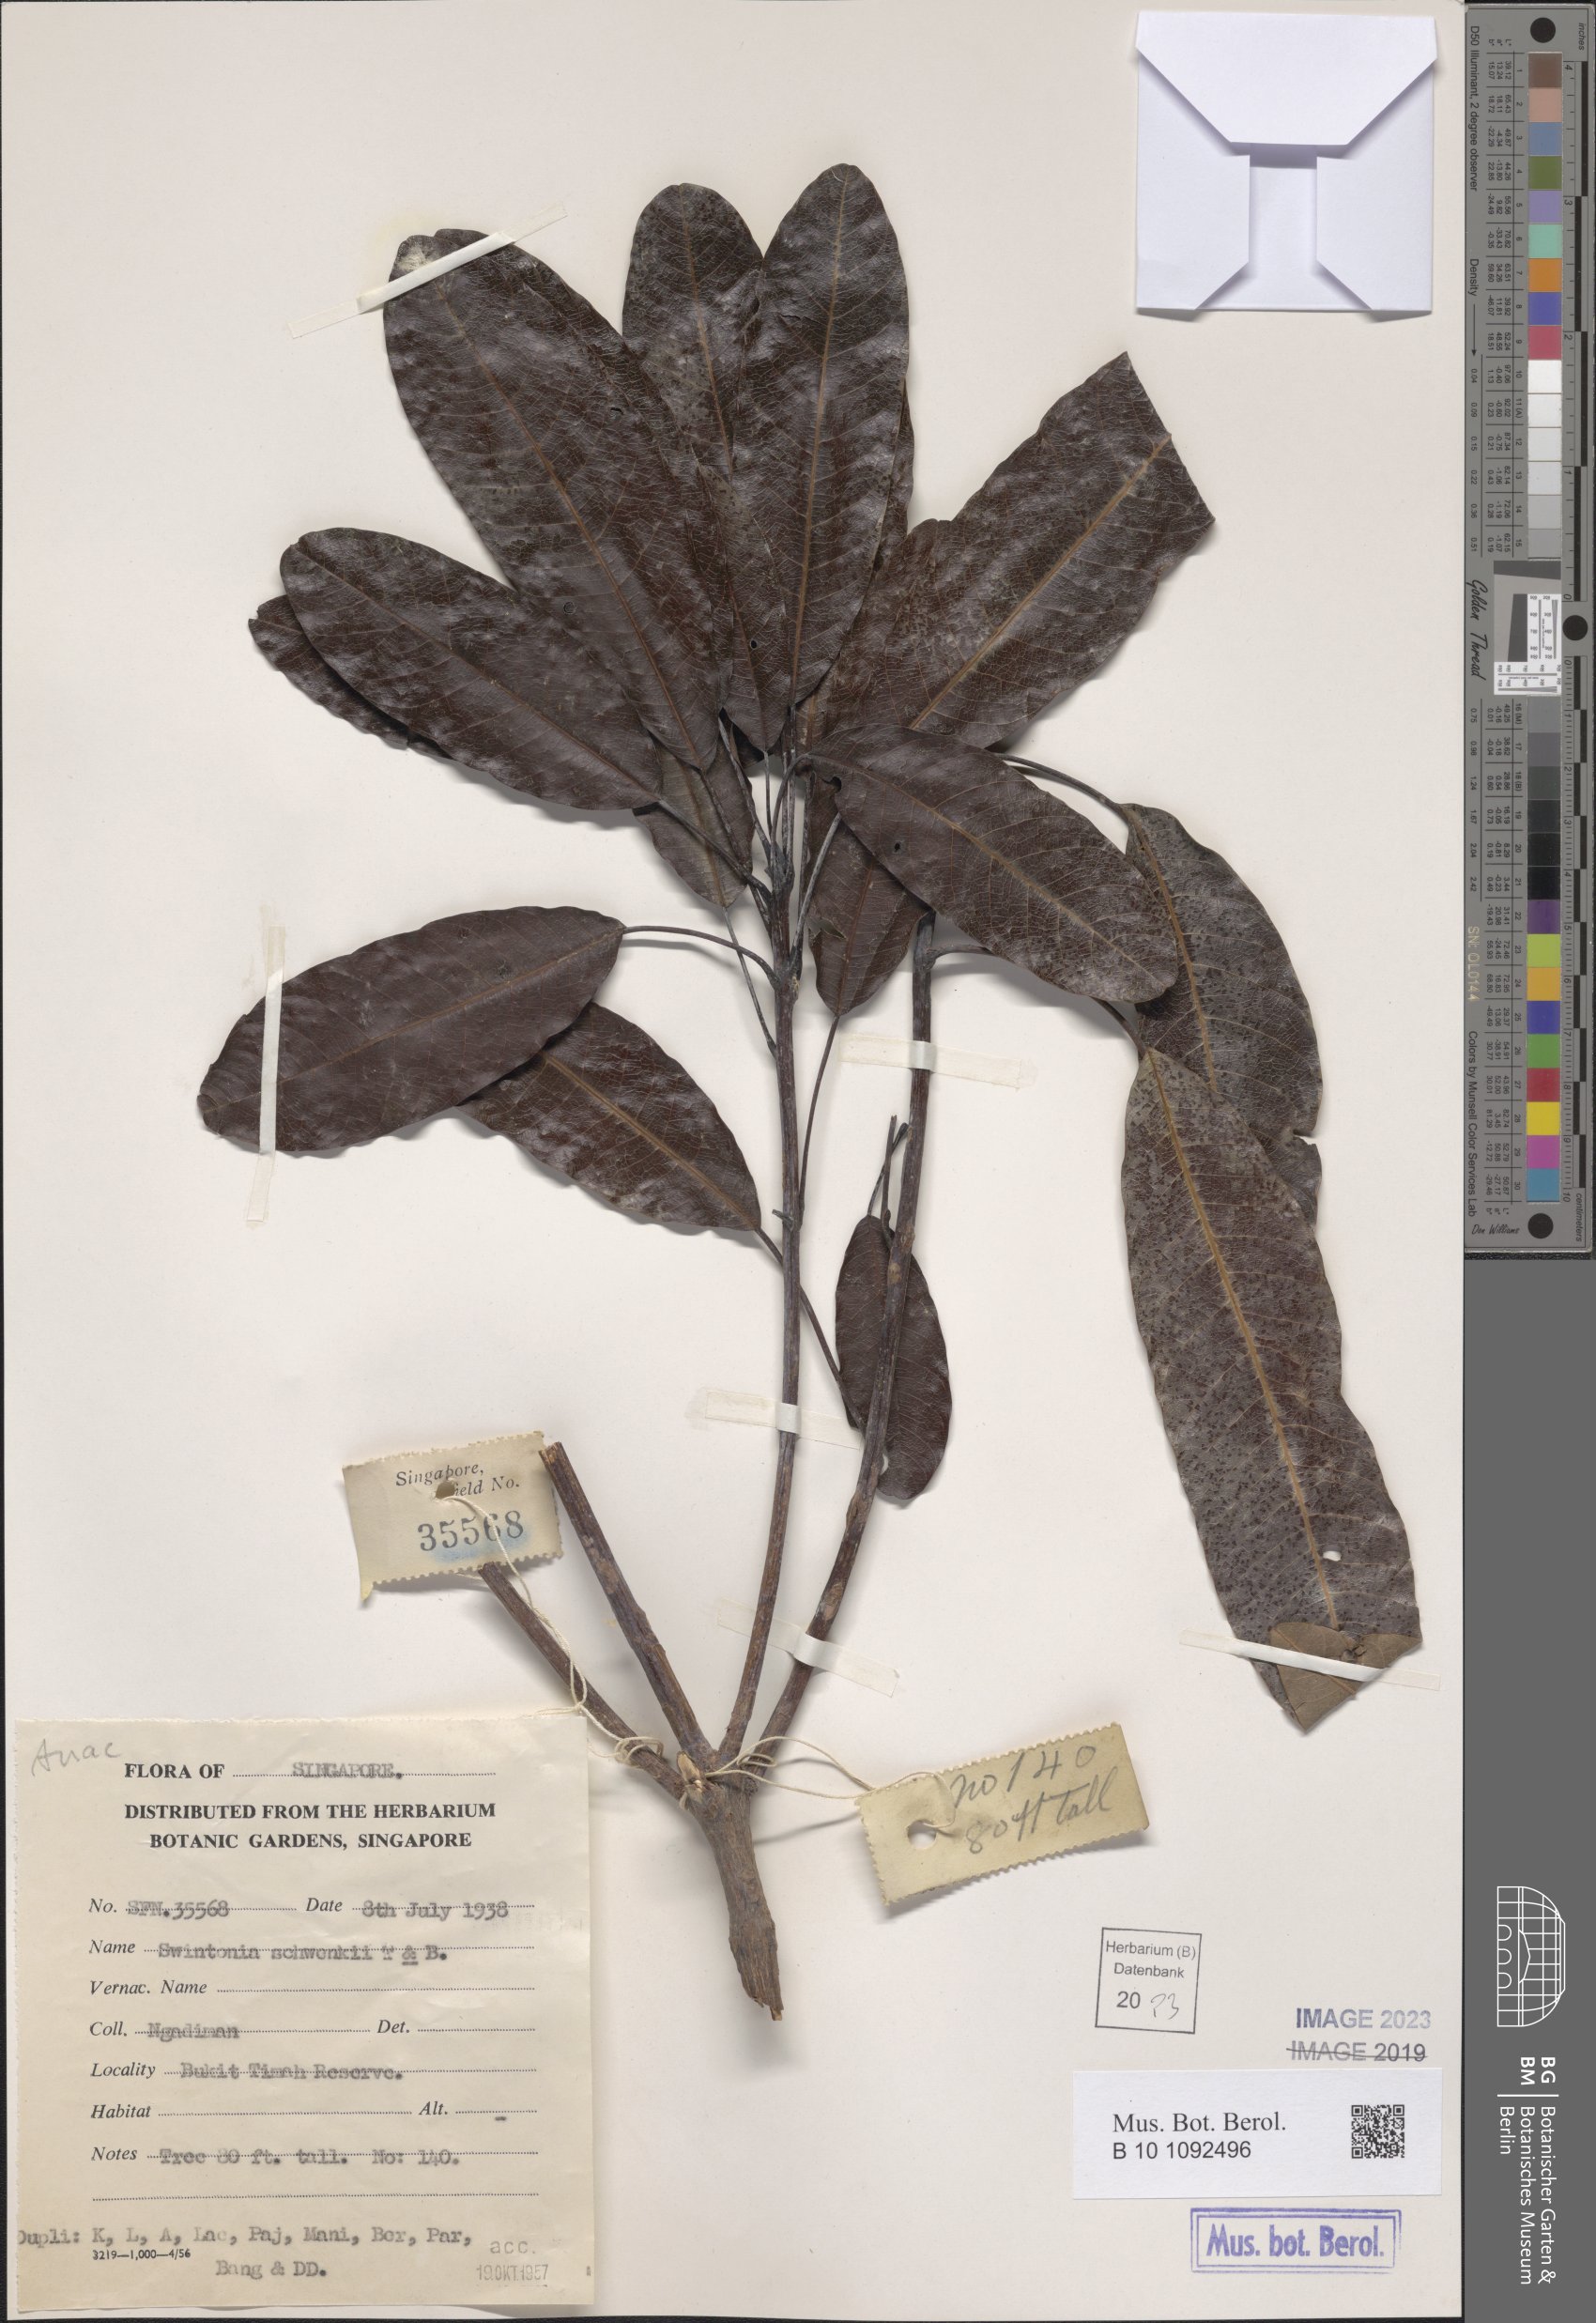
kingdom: Plantae
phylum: Tracheophyta
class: Magnoliopsida
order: Sapindales
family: Anacardiaceae
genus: Swintonia
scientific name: Swintonia schwenkii
